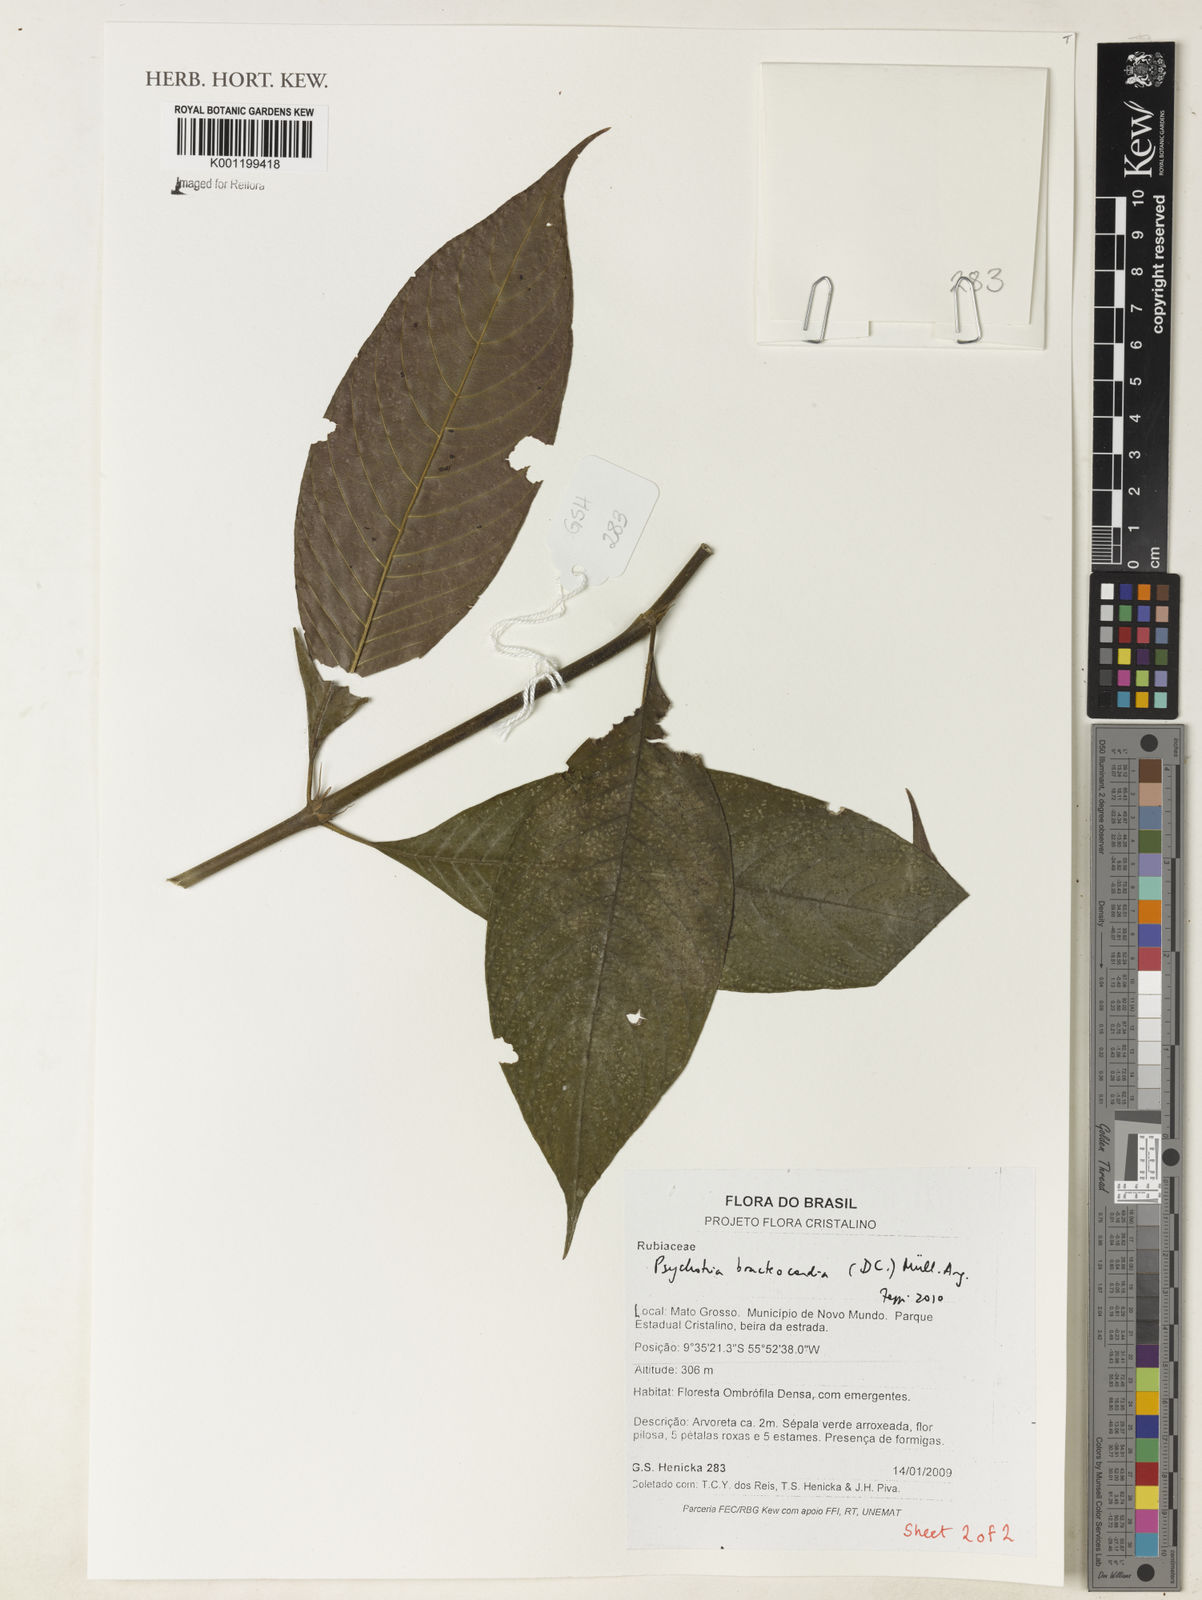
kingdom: Plantae
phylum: Tracheophyta
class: Magnoliopsida
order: Gentianales
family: Rubiaceae
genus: Psychotria
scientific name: Psychotria
